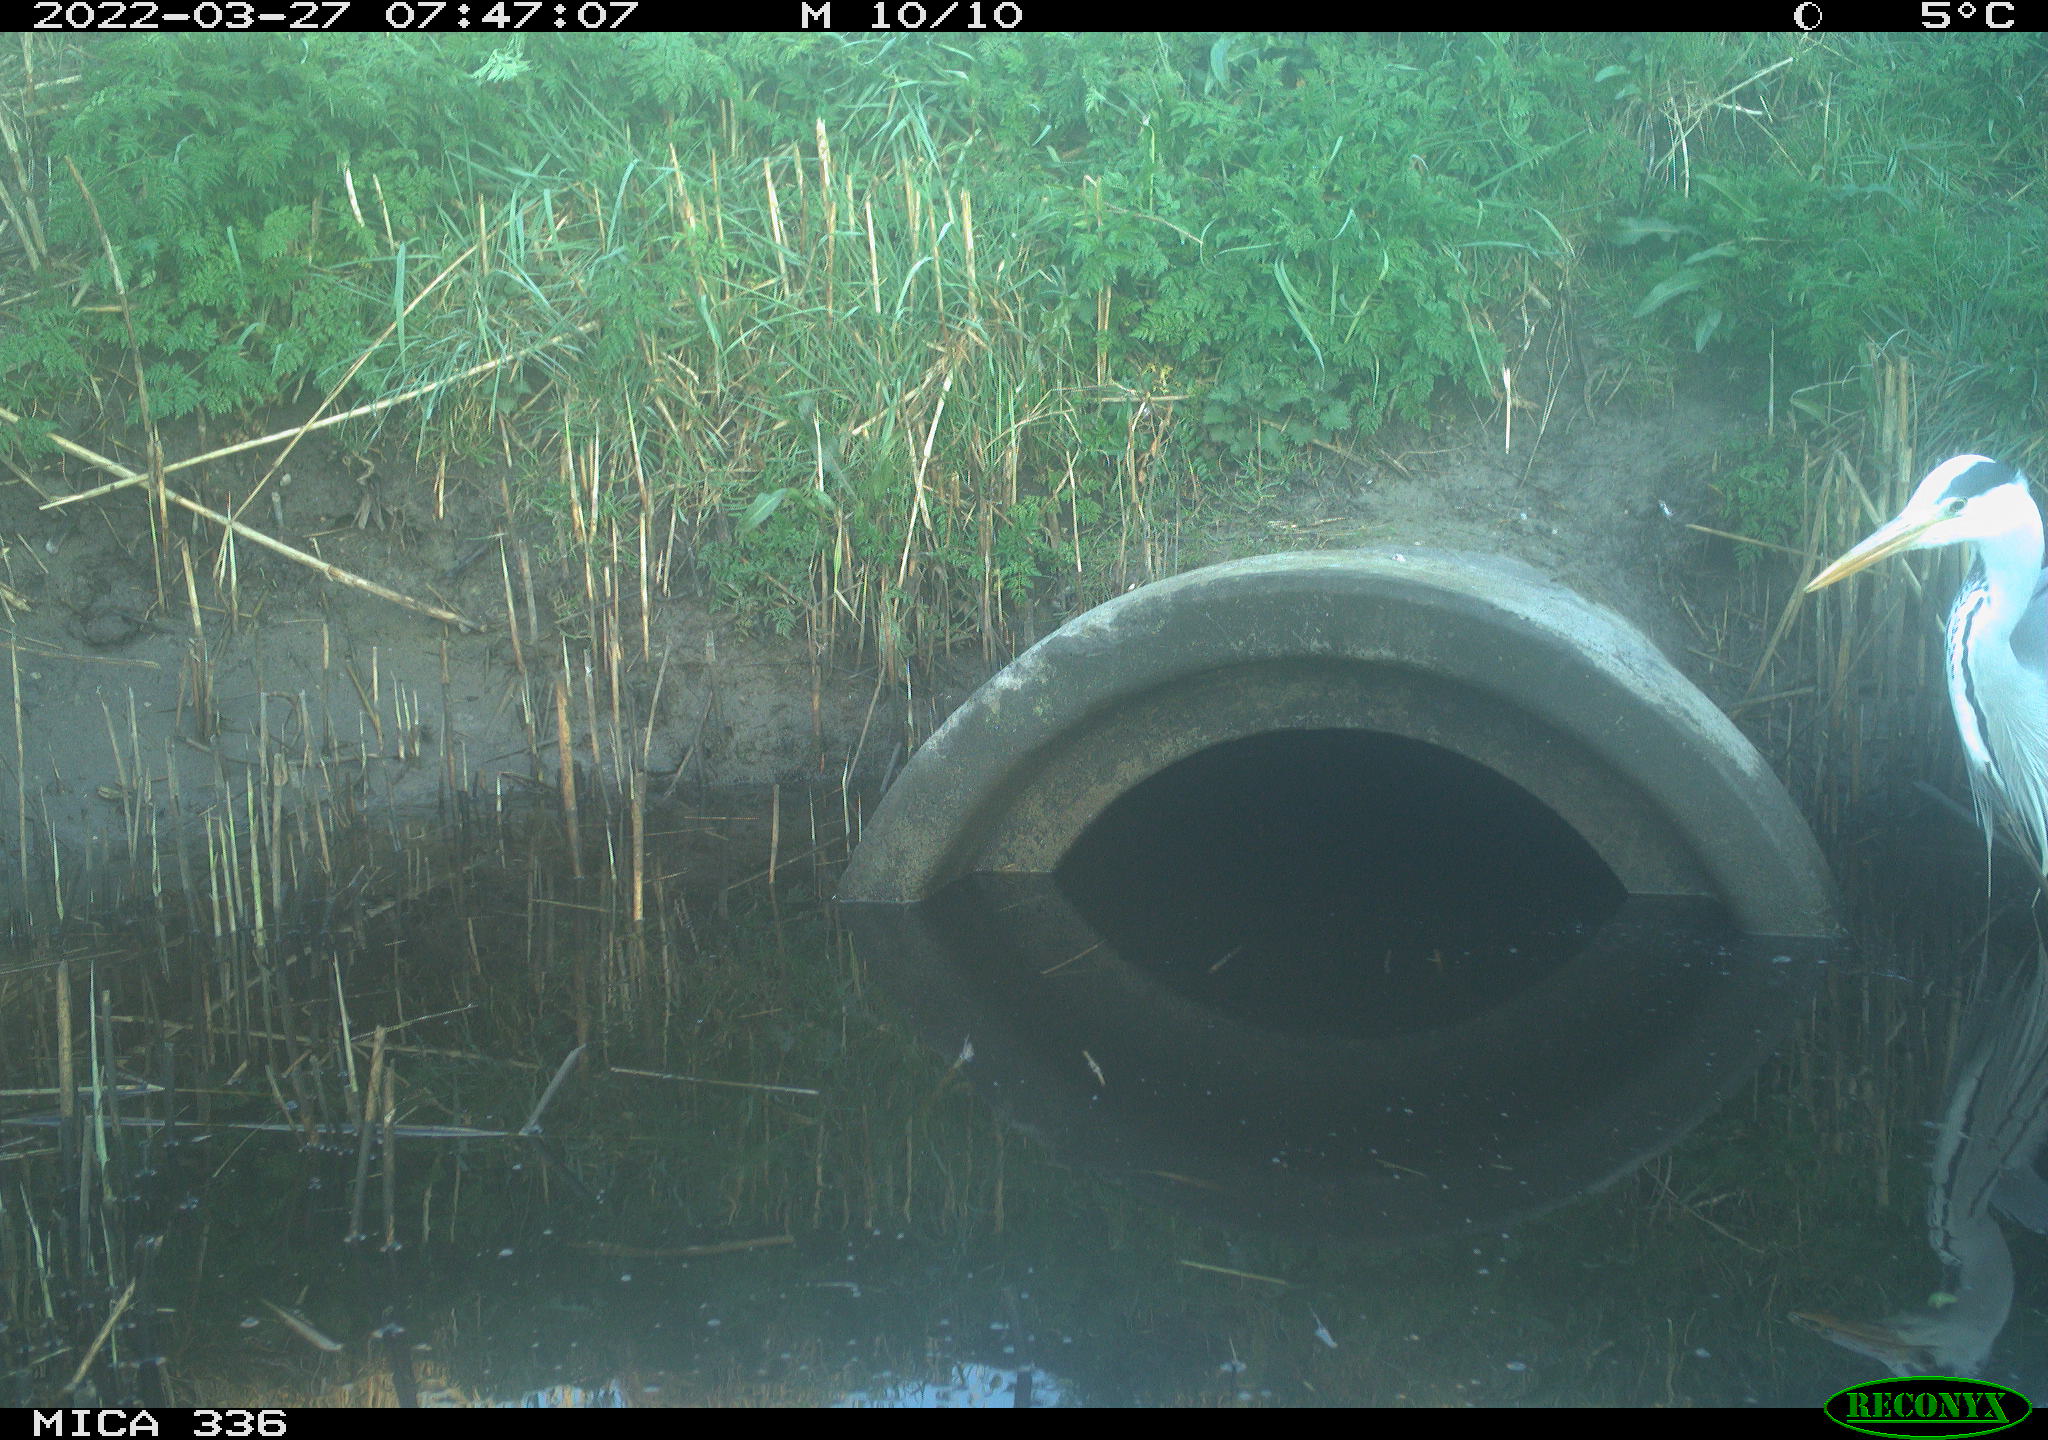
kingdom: Animalia
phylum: Chordata
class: Aves
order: Pelecaniformes
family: Ardeidae
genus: Ardea
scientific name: Ardea cinerea
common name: Grey heron
